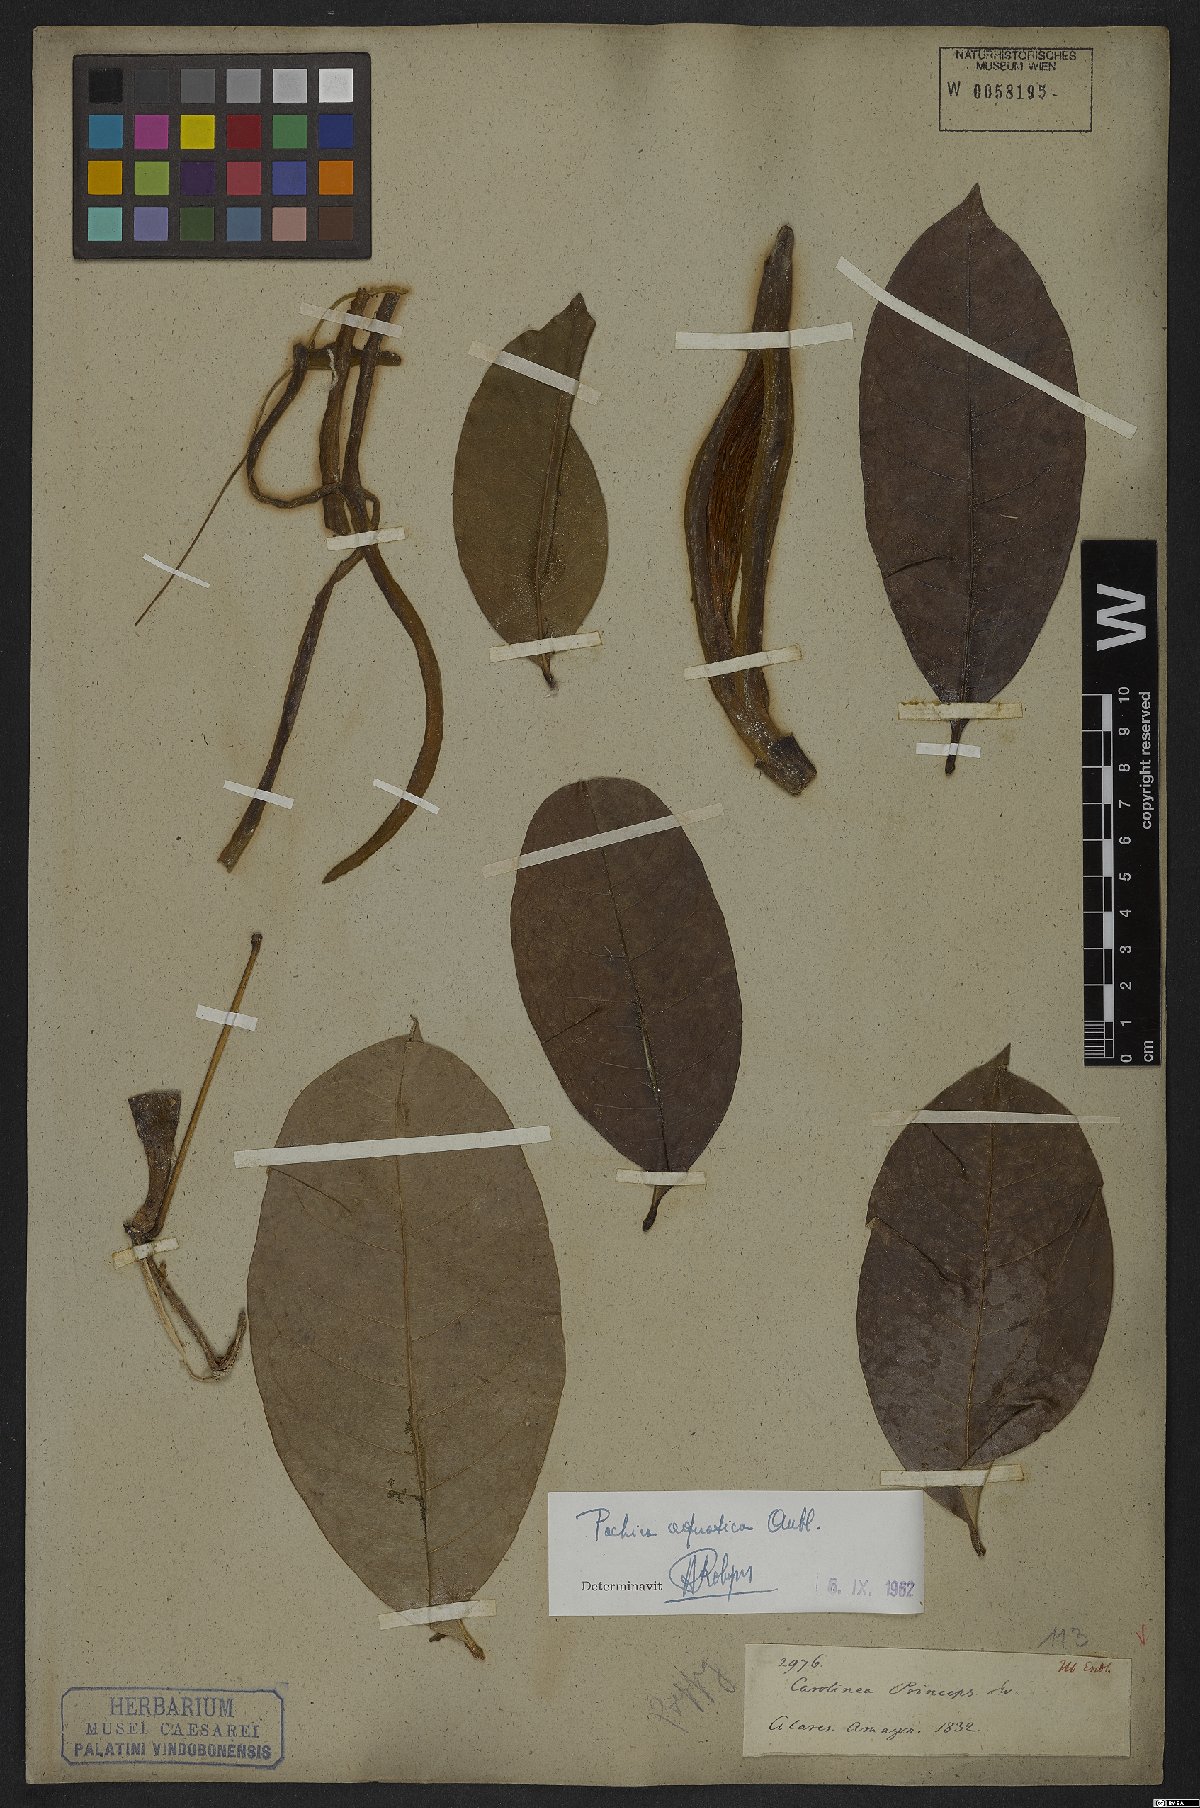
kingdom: Plantae
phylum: Tracheophyta
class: Magnoliopsida
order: Malvales
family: Malvaceae
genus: Pachira
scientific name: Pachira aquatica
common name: Provision-tree
